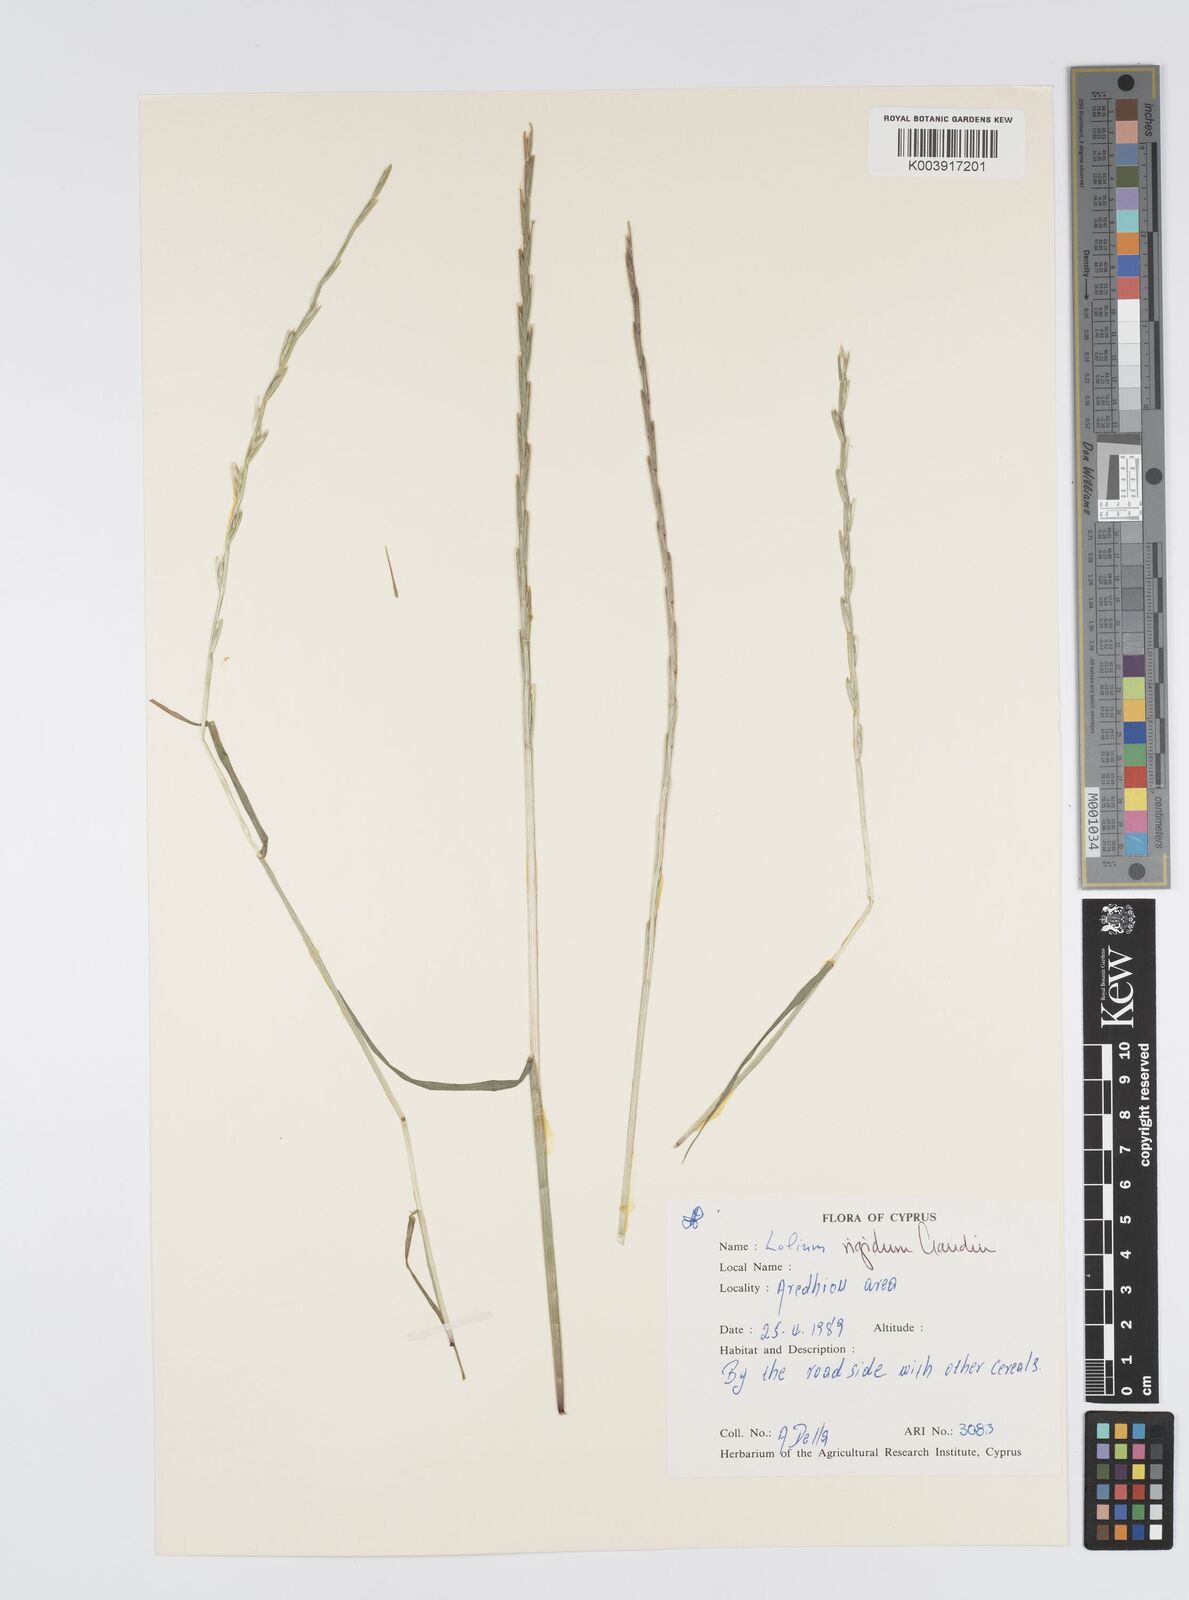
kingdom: Plantae
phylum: Tracheophyta
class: Liliopsida
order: Poales
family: Poaceae
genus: Lolium
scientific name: Lolium rigidum
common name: Wimmera ryegrass
